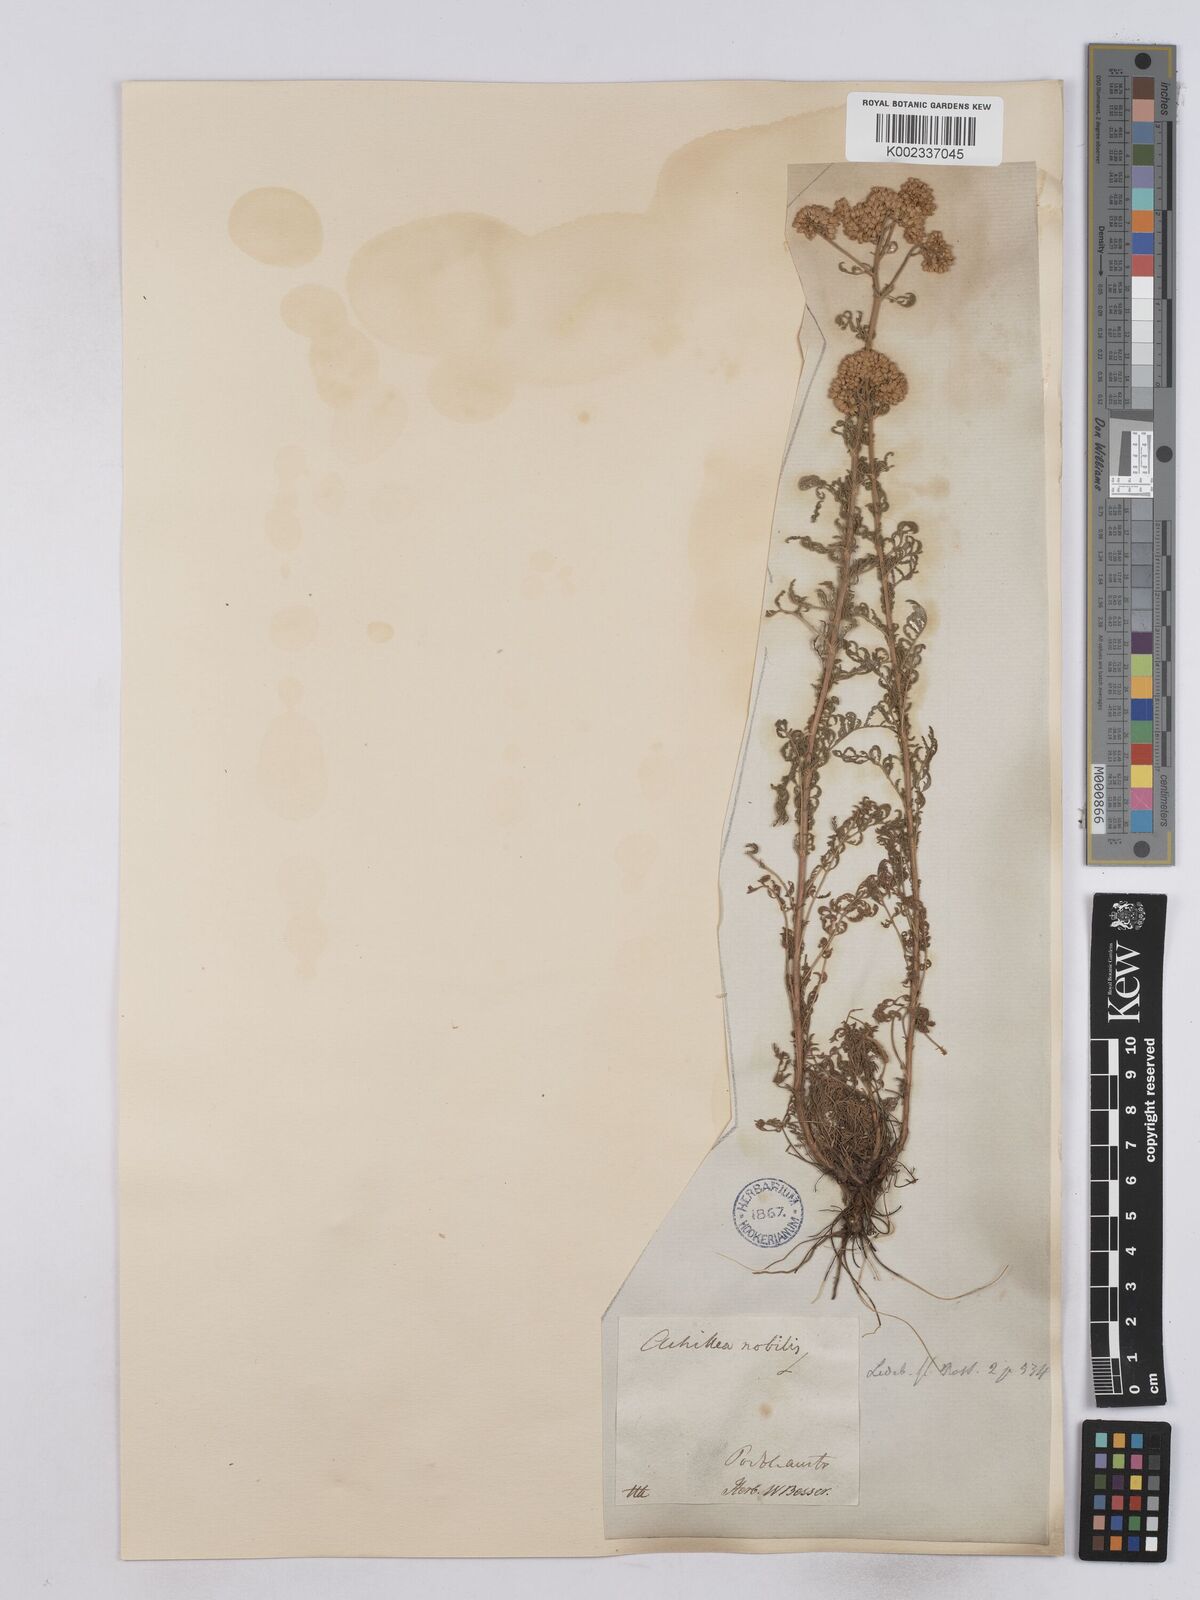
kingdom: Plantae
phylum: Tracheophyta
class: Magnoliopsida
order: Asterales
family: Asteraceae
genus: Achillea
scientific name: Achillea nobilis
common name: Noble yarrow
